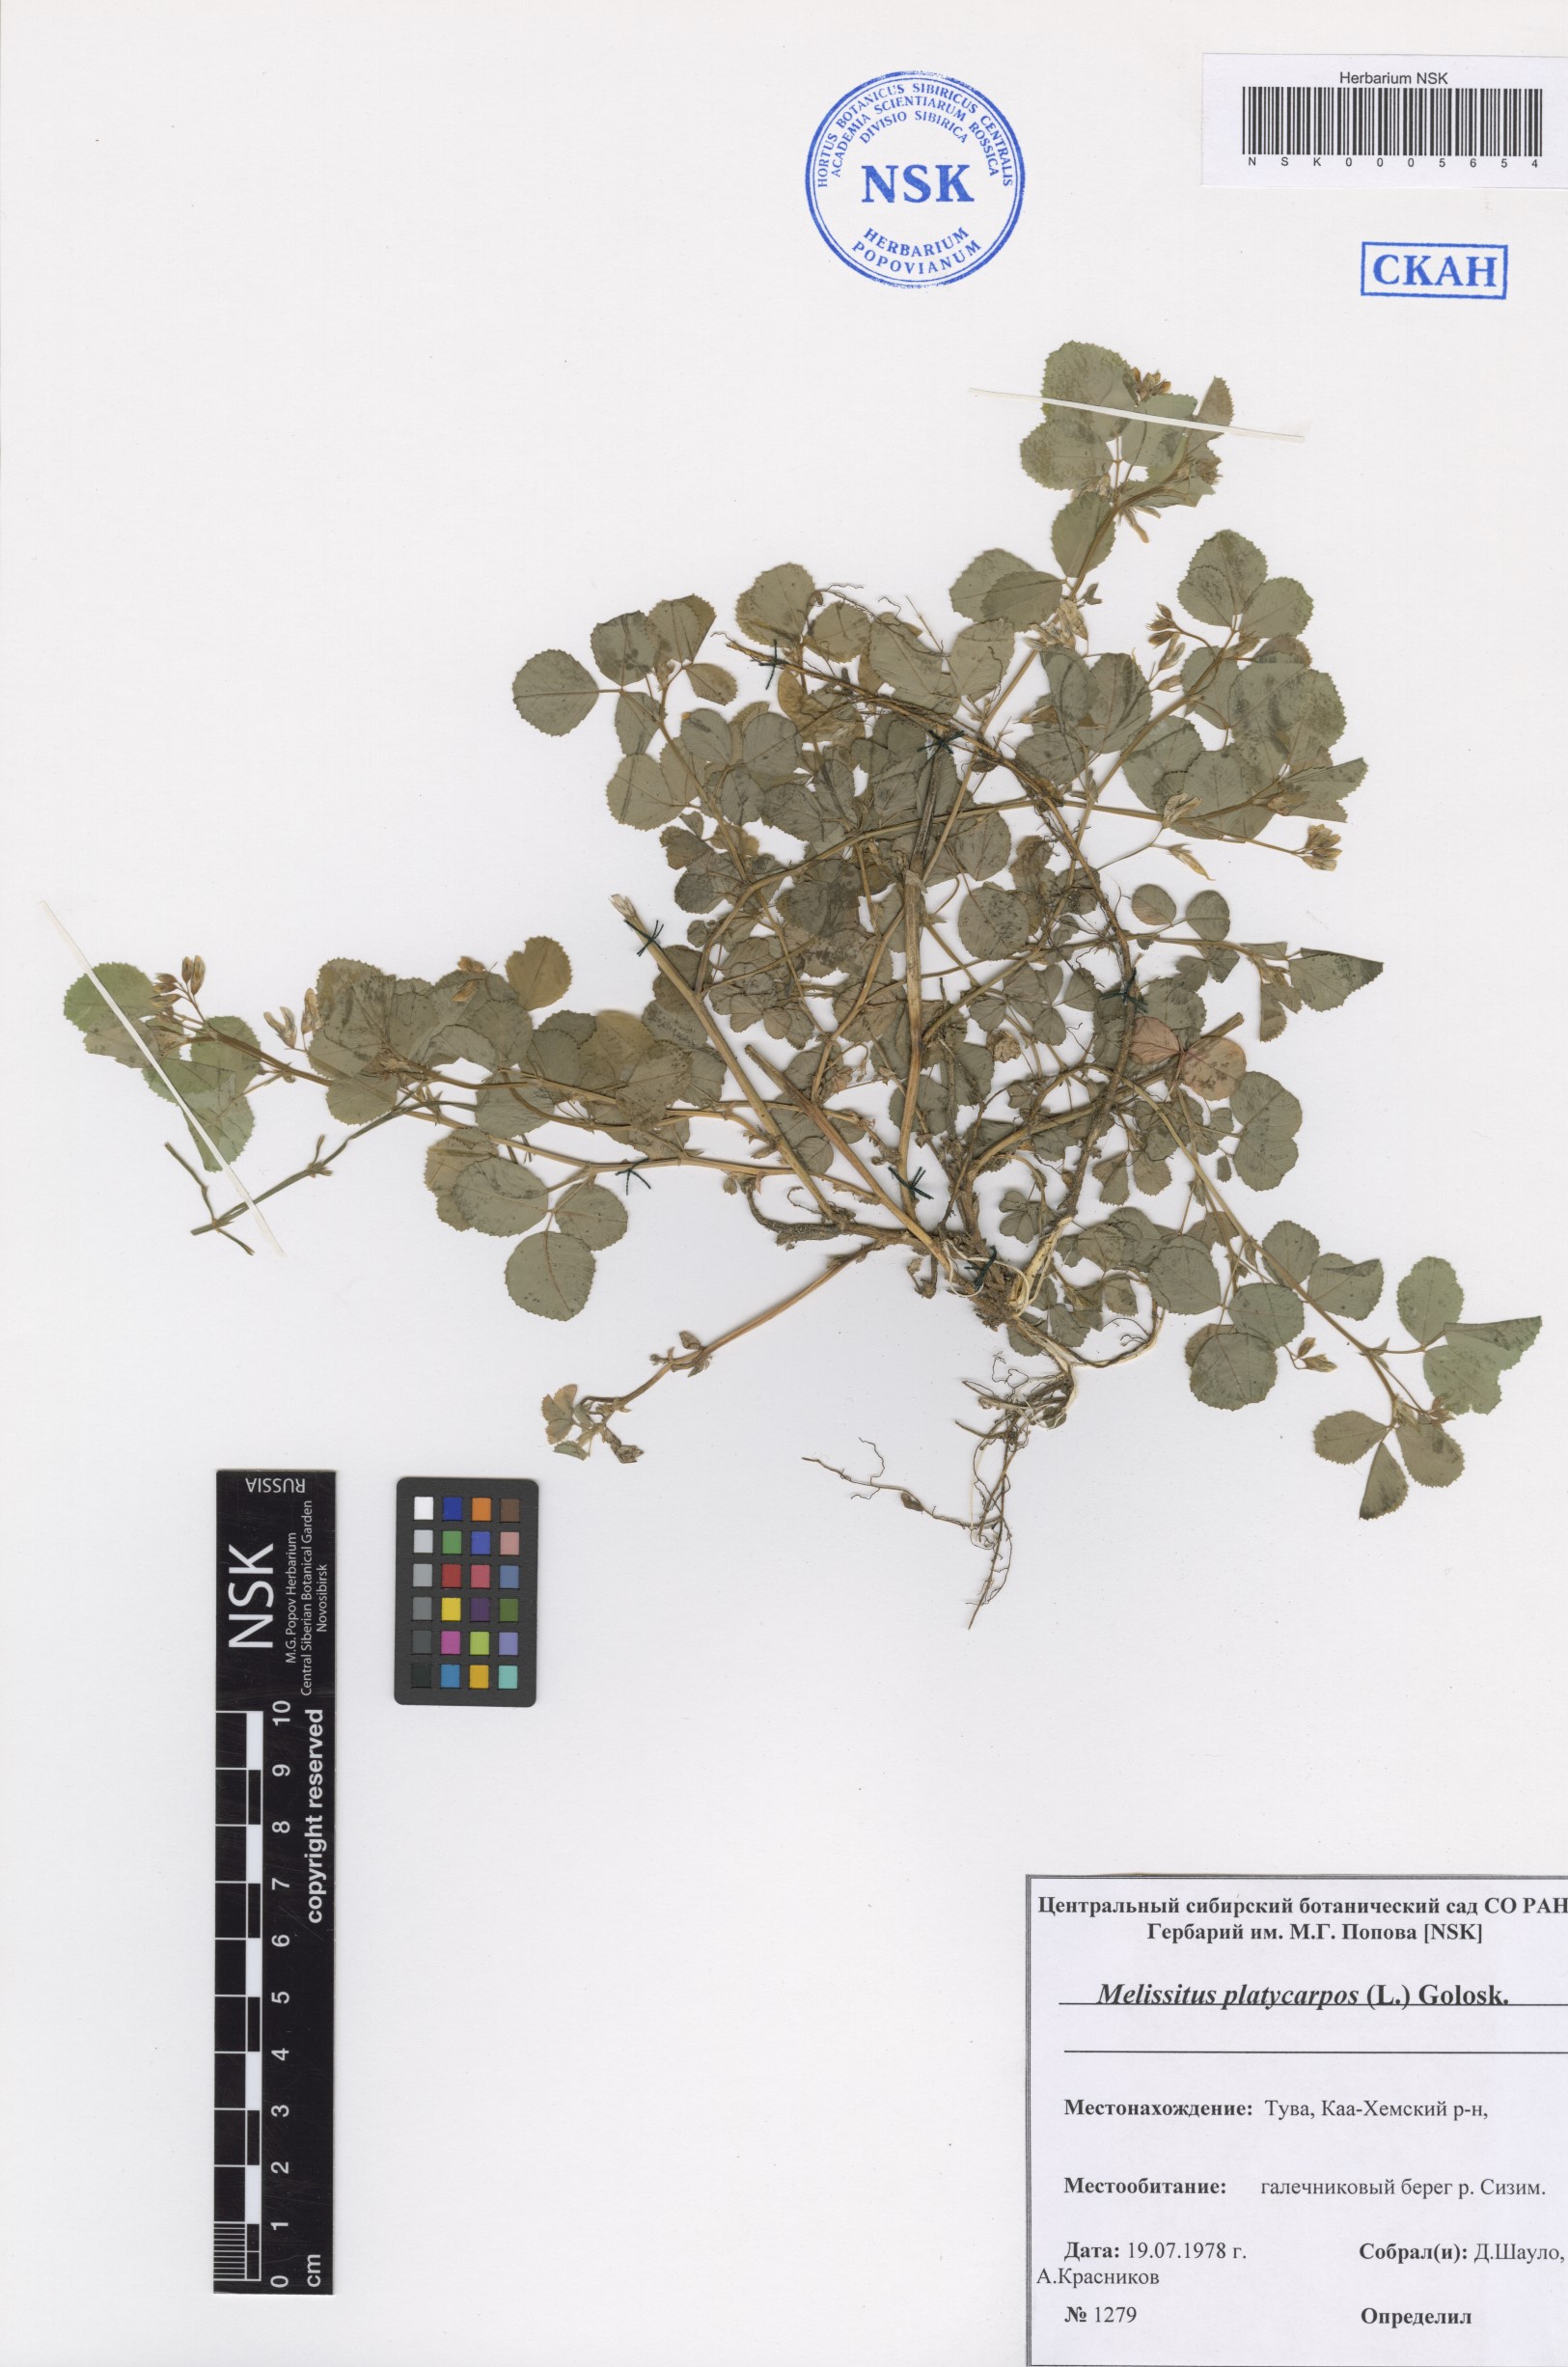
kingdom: Plantae
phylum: Tracheophyta
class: Magnoliopsida
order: Fabales
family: Fabaceae
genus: Medicago
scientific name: Medicago platycarpos
